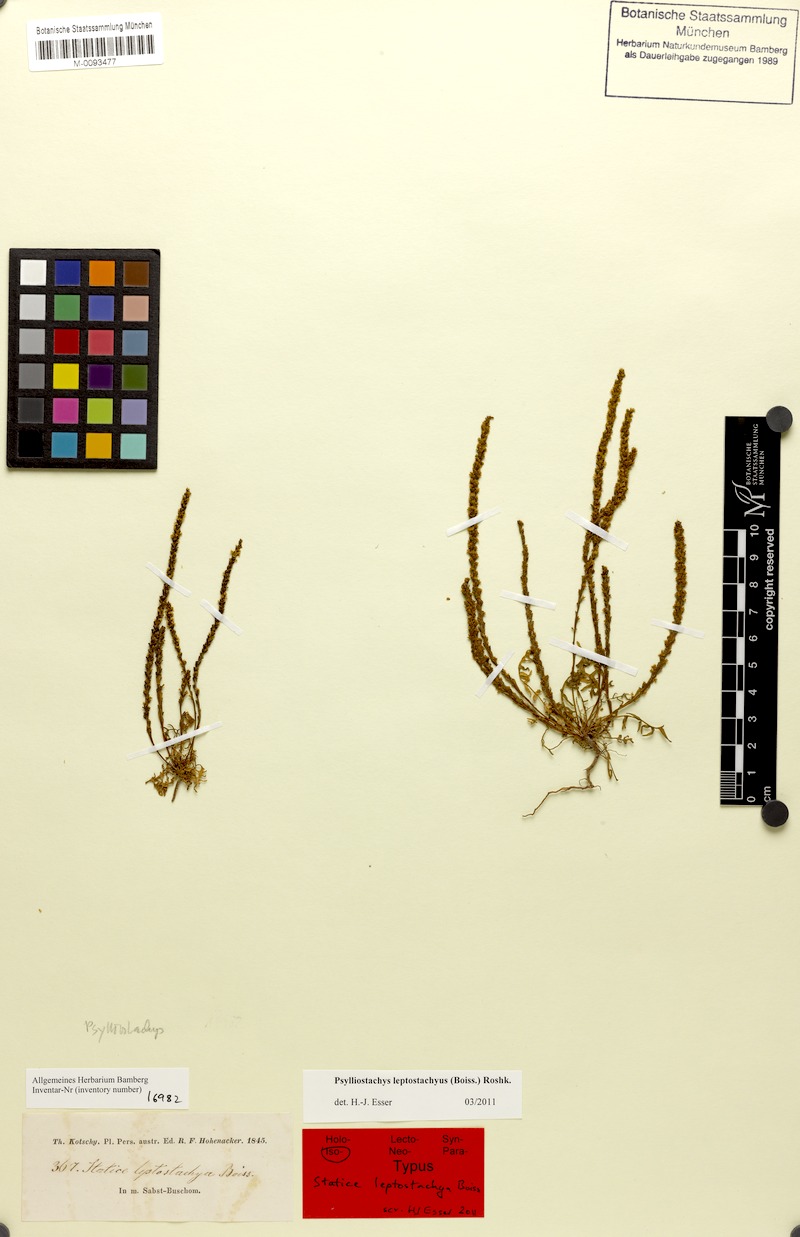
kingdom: Plantae
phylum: Tracheophyta
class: Magnoliopsida
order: Caryophyllales
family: Plumbaginaceae
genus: Psylliostachys
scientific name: Psylliostachys leptostachyus
